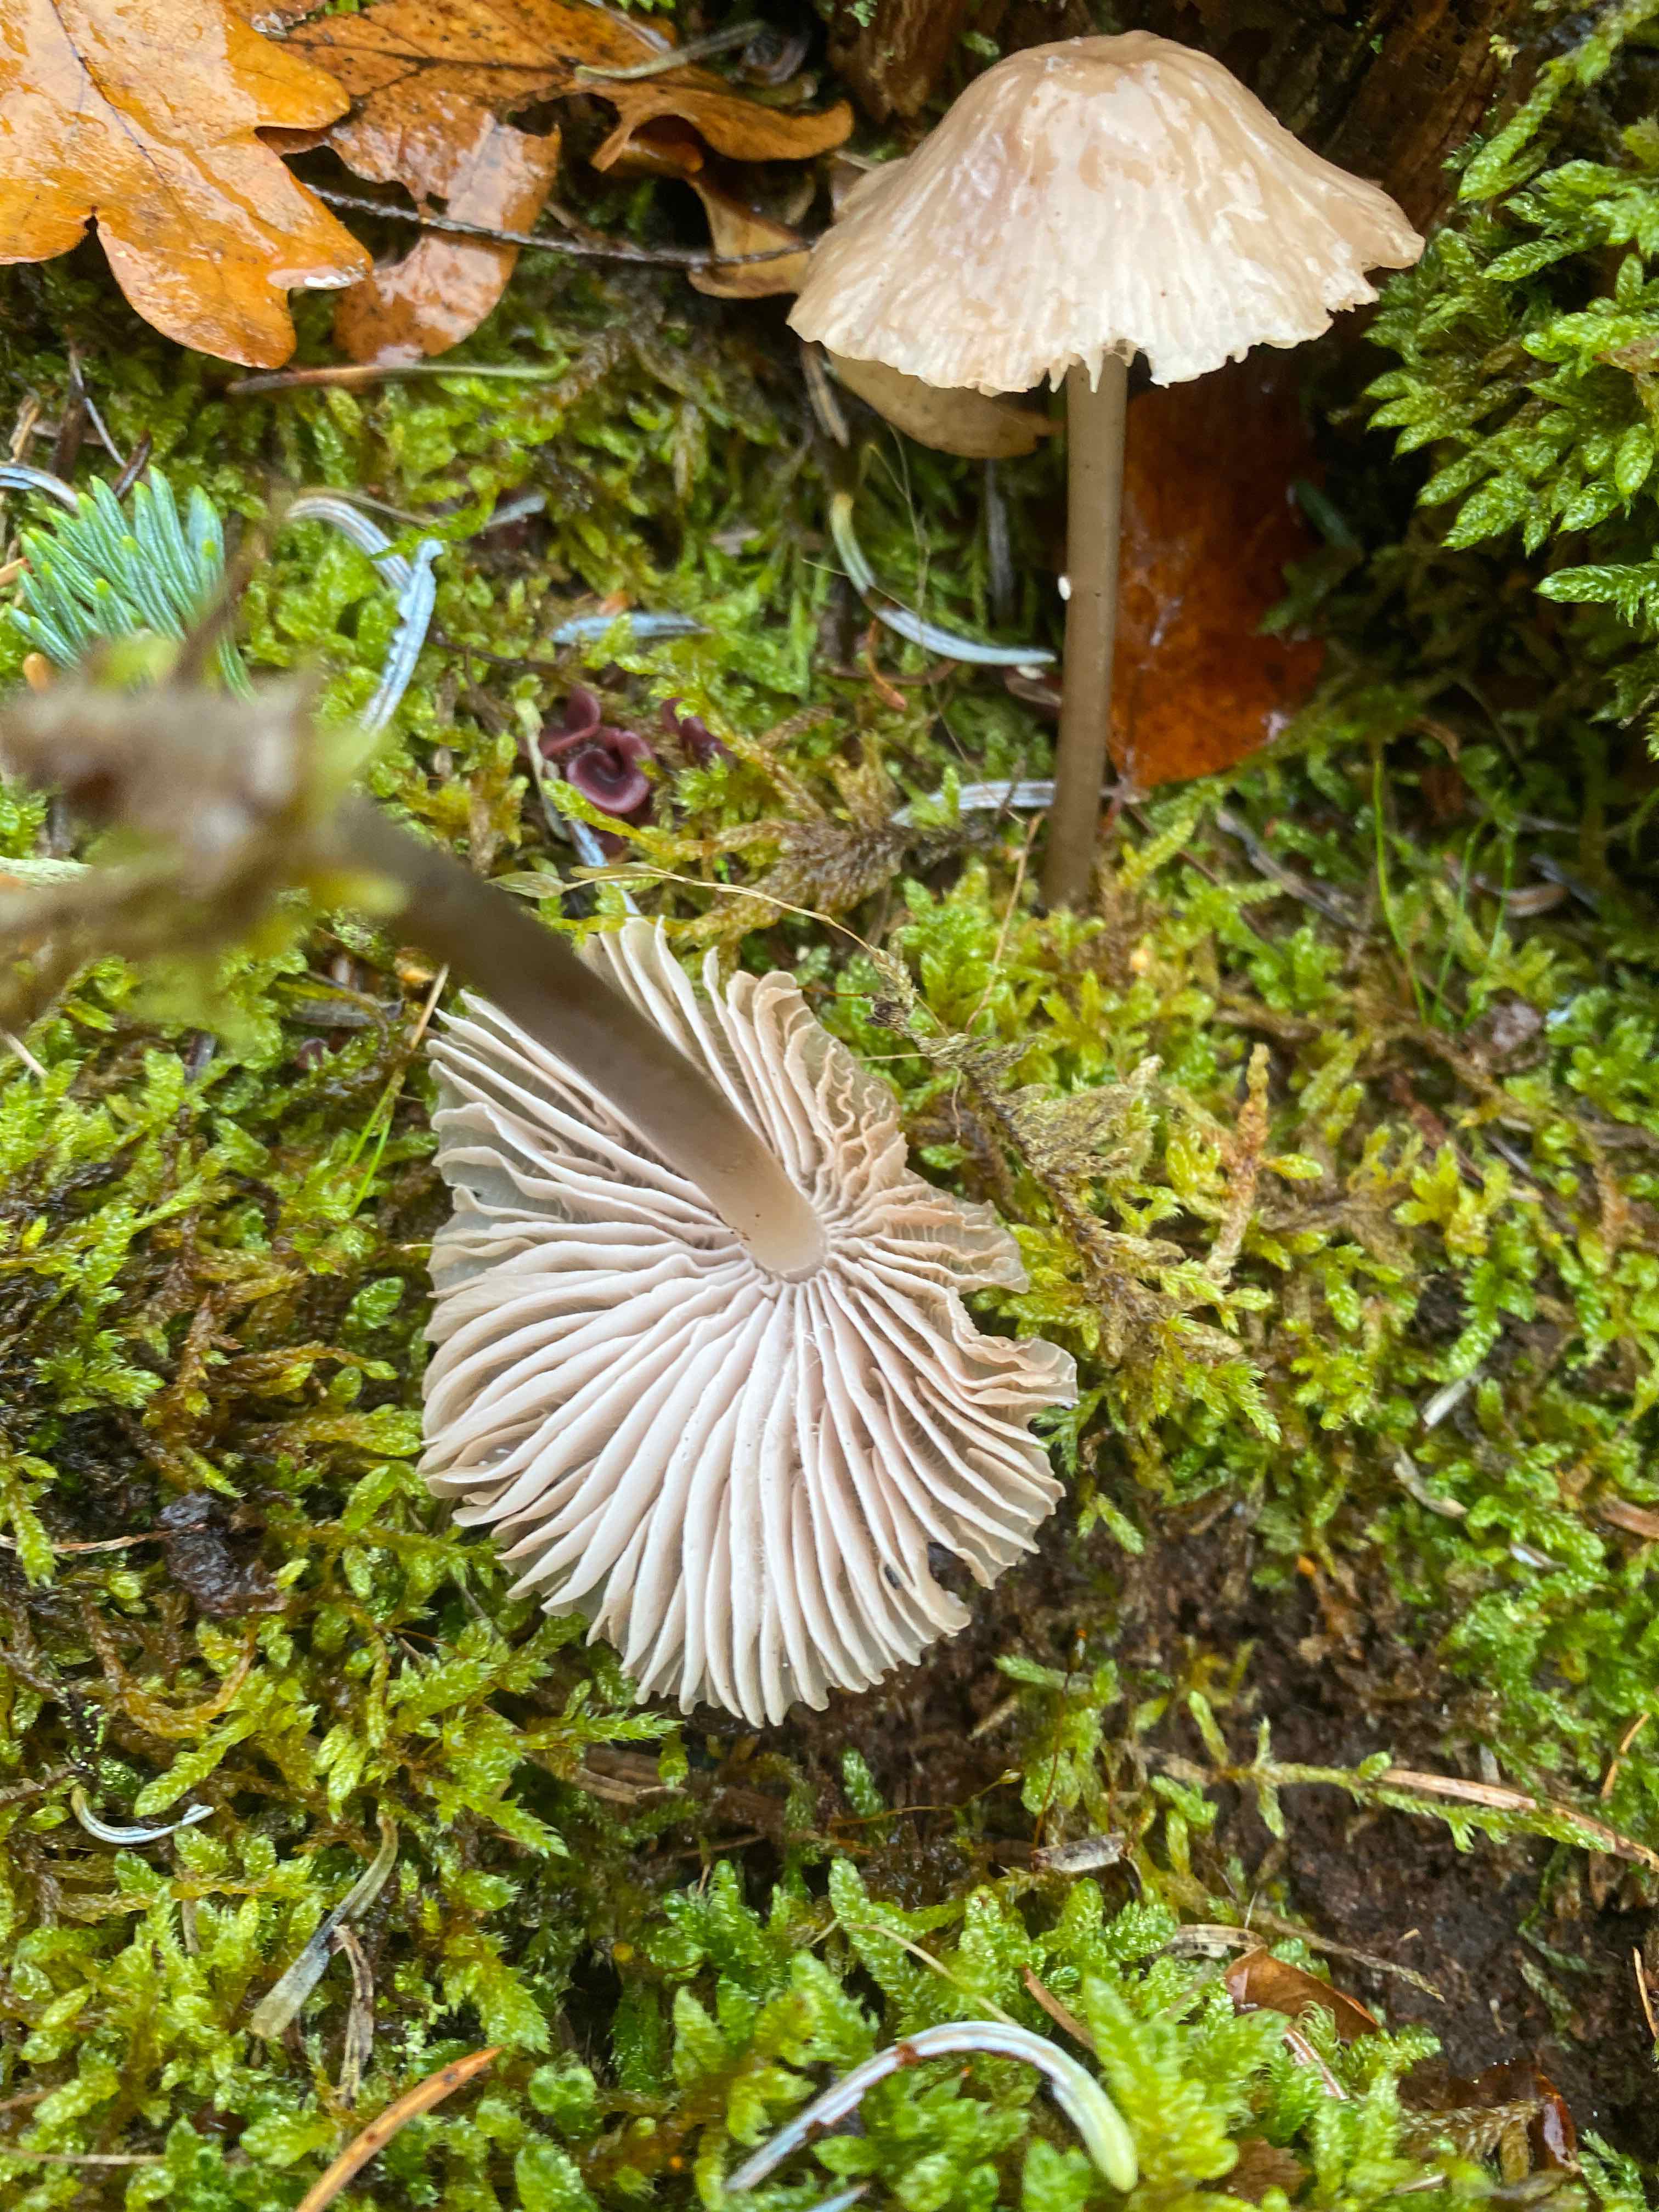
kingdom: Fungi
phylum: Basidiomycota
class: Agaricomycetes
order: Agaricales
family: Mycenaceae
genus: Mycena
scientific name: Mycena
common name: huesvamp
